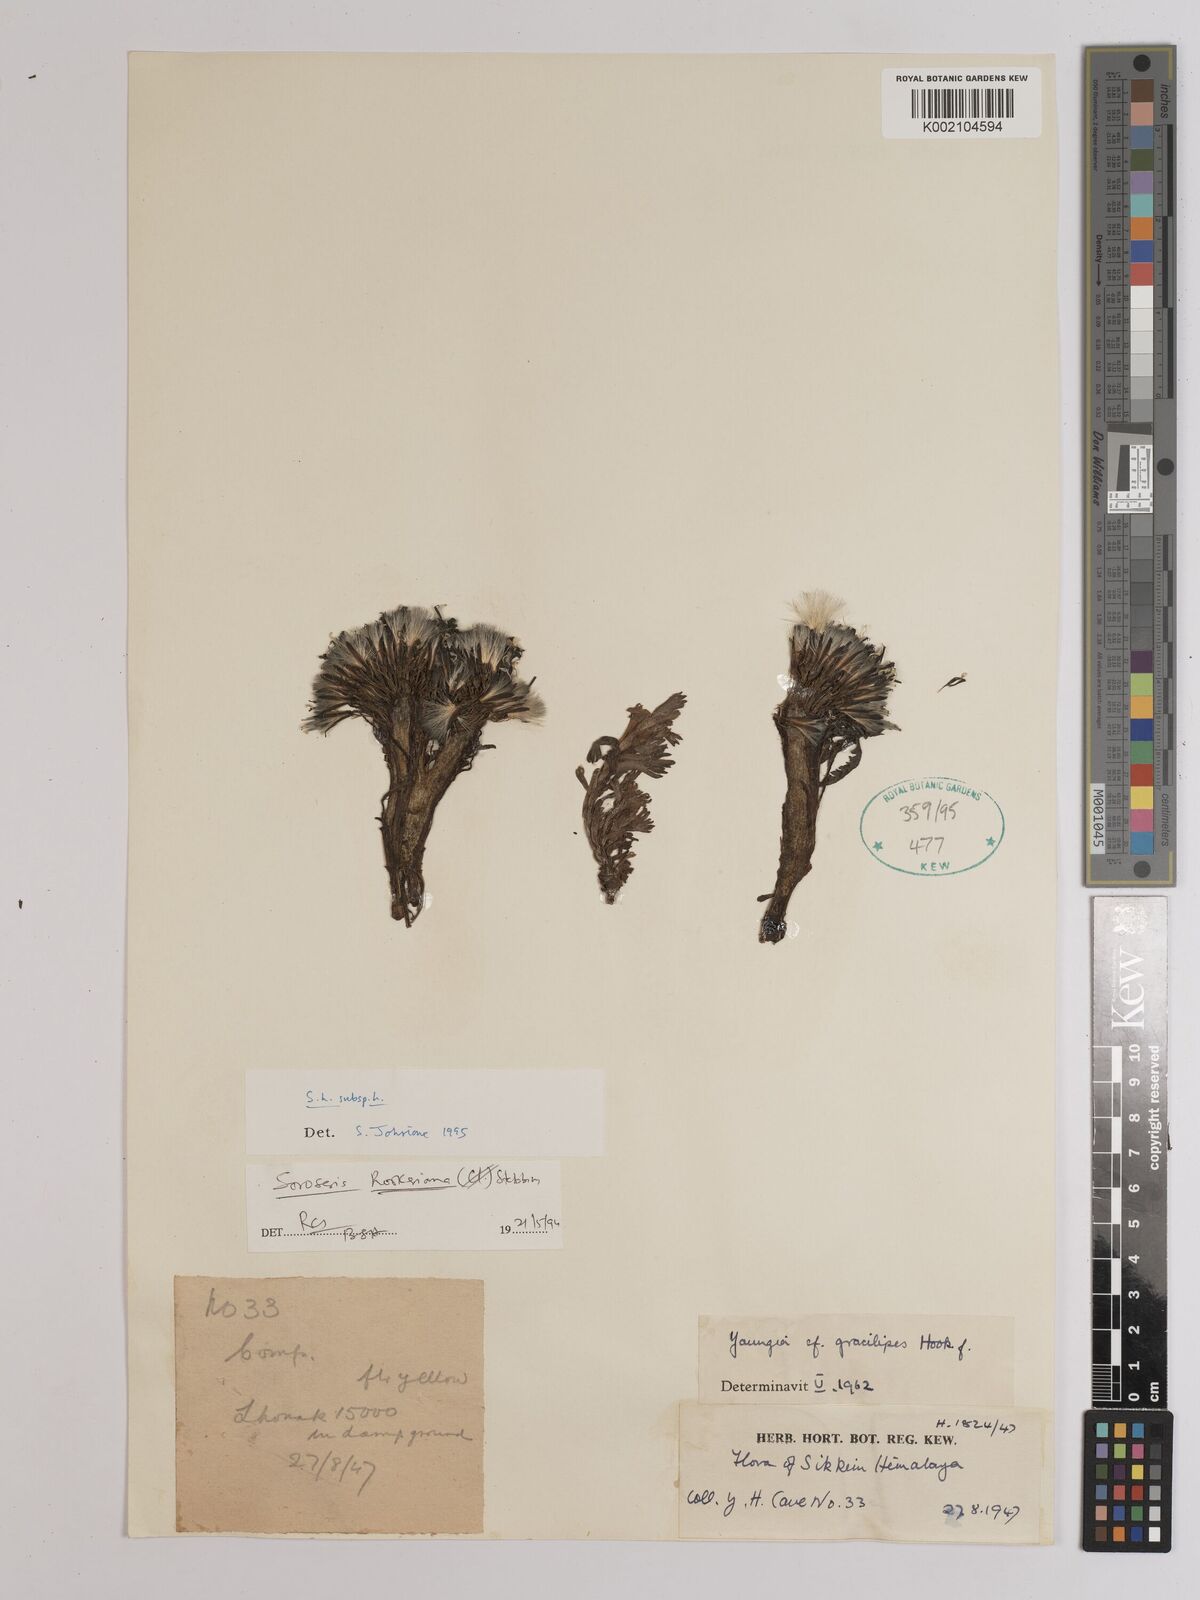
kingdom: Plantae
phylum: Tracheophyta
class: Magnoliopsida
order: Asterales
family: Asteraceae
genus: Soroseris
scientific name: Soroseris hookeriana
